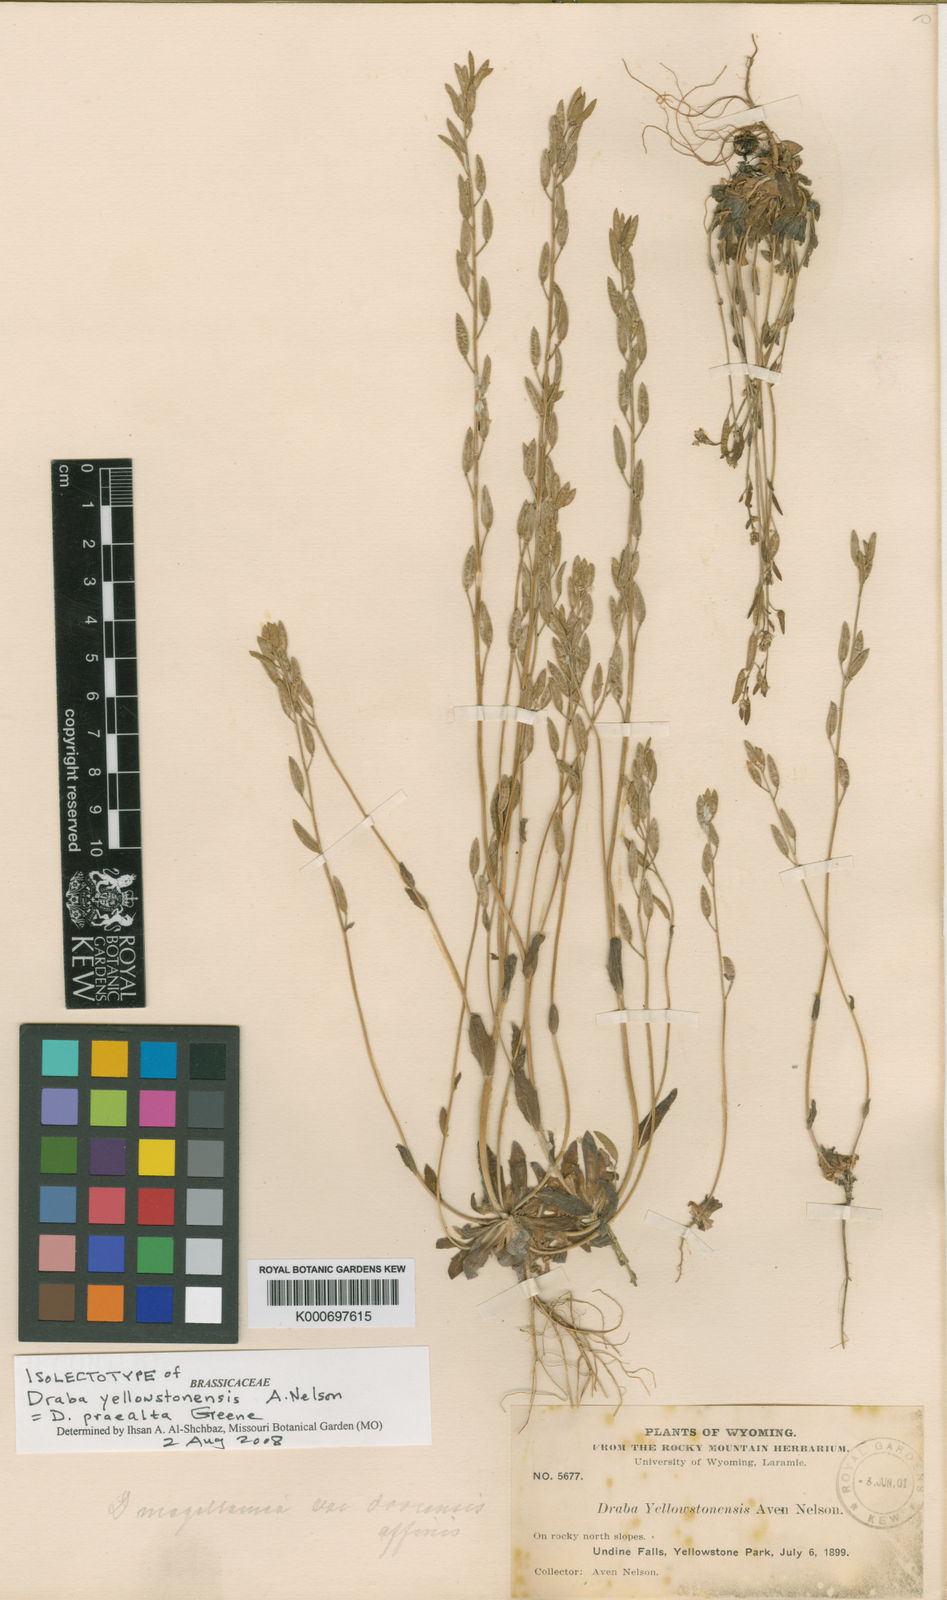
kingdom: Plantae
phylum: Tracheophyta
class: Magnoliopsida
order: Brassicales
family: Brassicaceae
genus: Draba
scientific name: Draba praealta
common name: Tall draba
